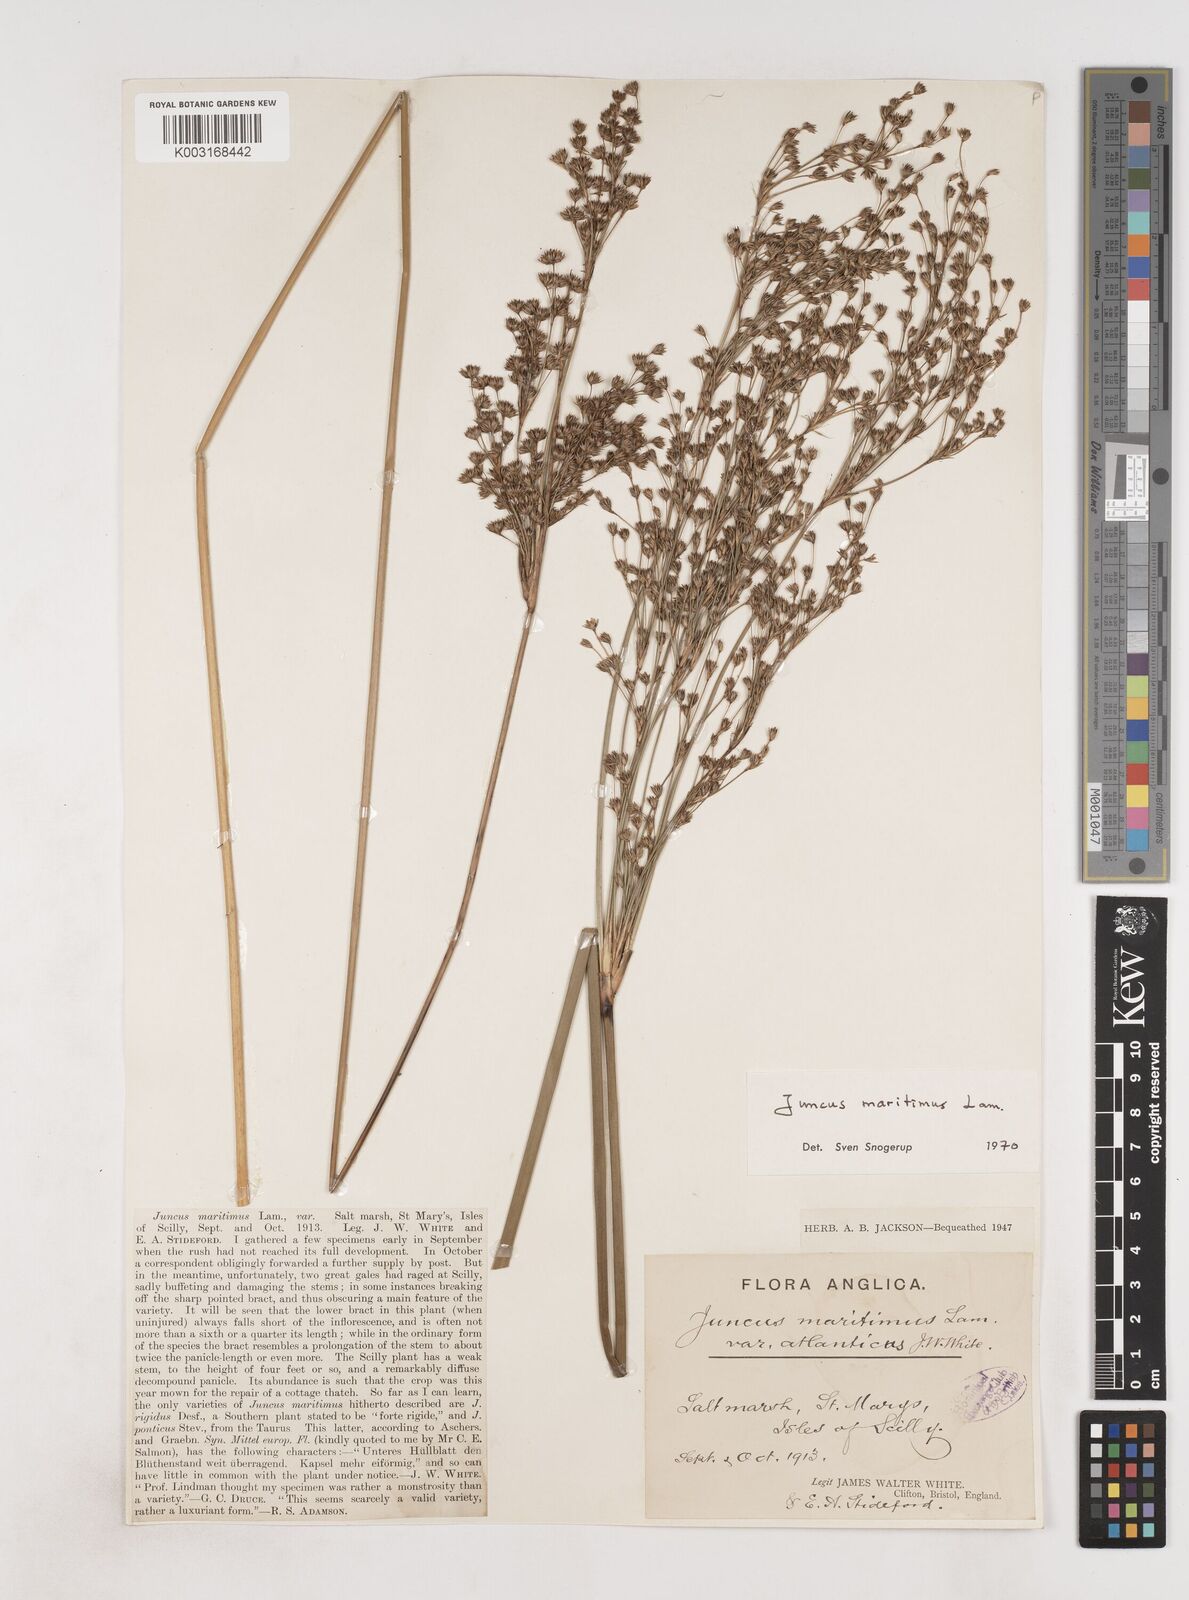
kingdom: Plantae
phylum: Tracheophyta
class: Liliopsida
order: Poales
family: Juncaceae
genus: Juncus
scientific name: Juncus maritimus
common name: Sea rush
